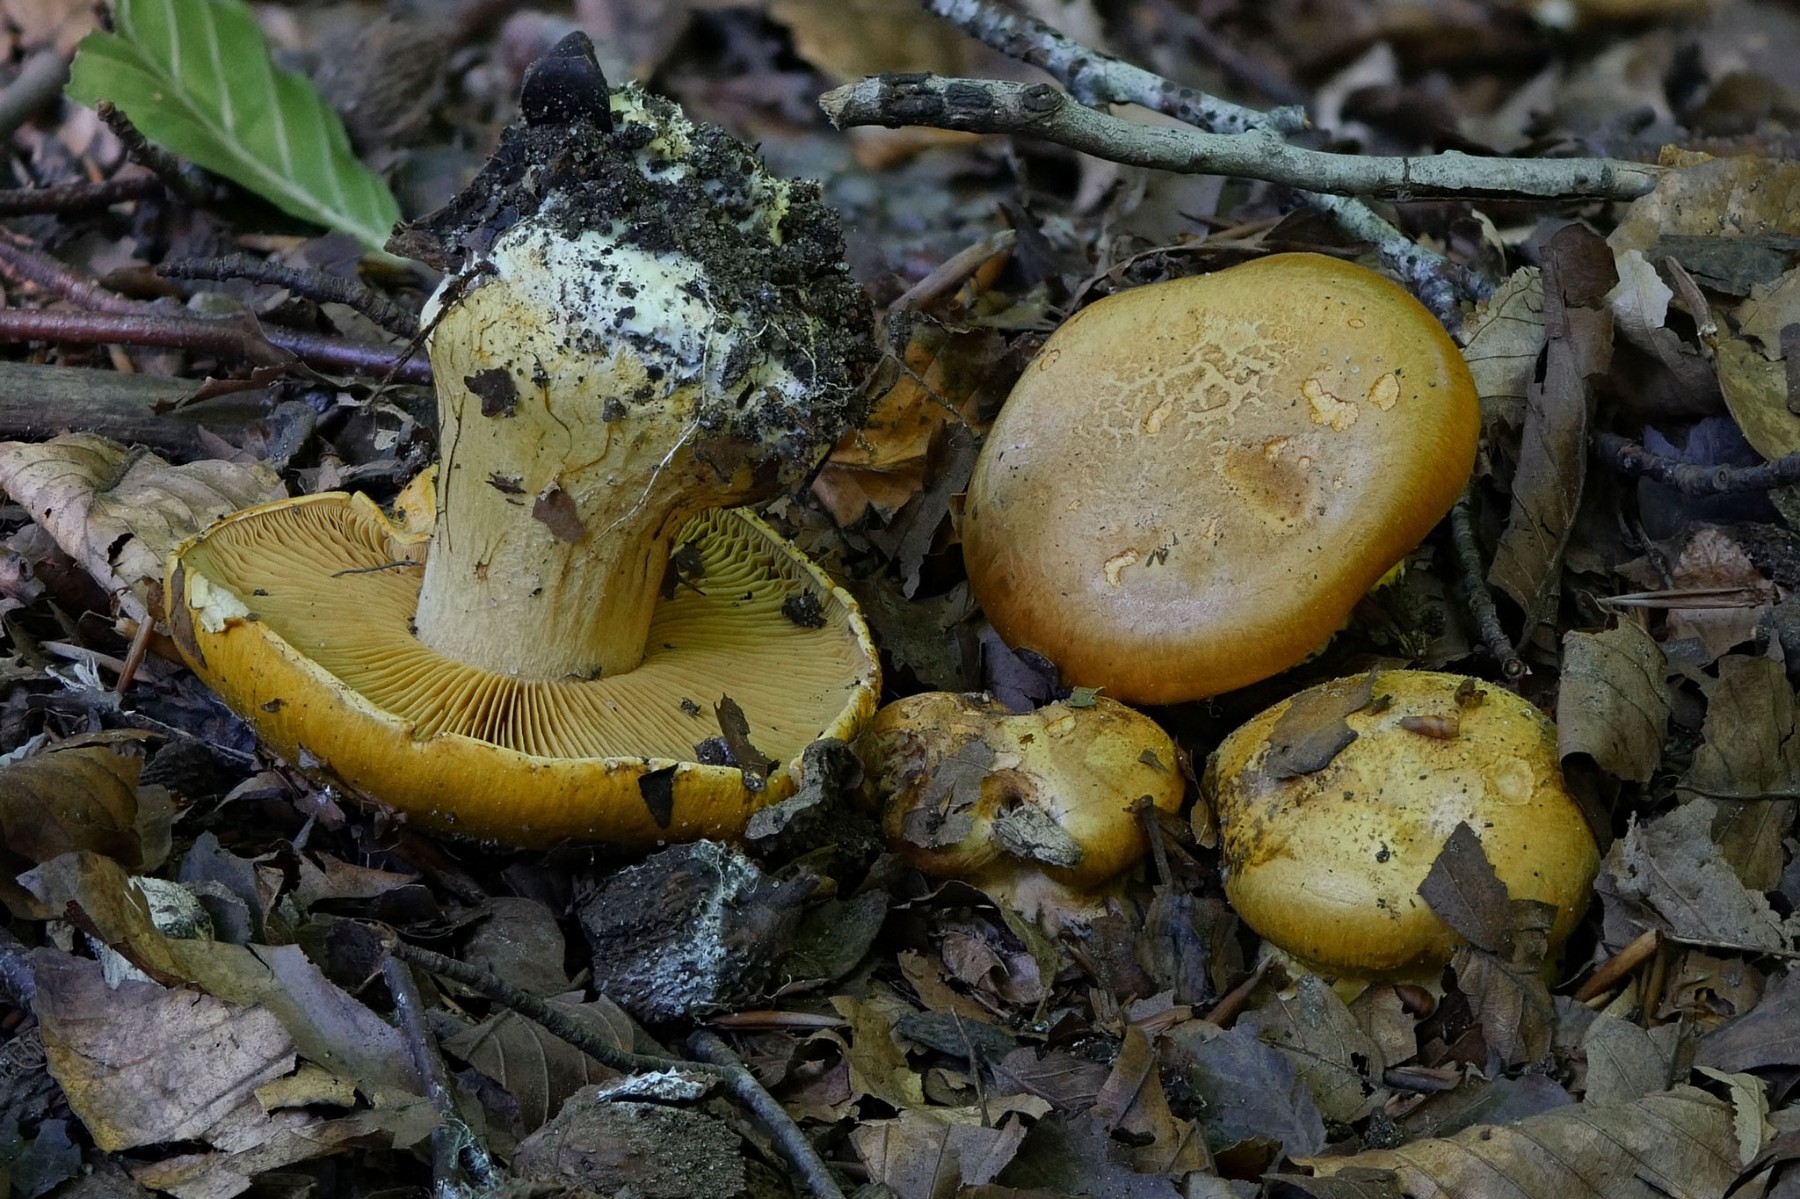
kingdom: Fungi
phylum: Basidiomycota
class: Agaricomycetes
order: Agaricales
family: Cortinariaceae
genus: Calonarius
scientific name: Calonarius alcalinophilus
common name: gyldenbrun slørhat
